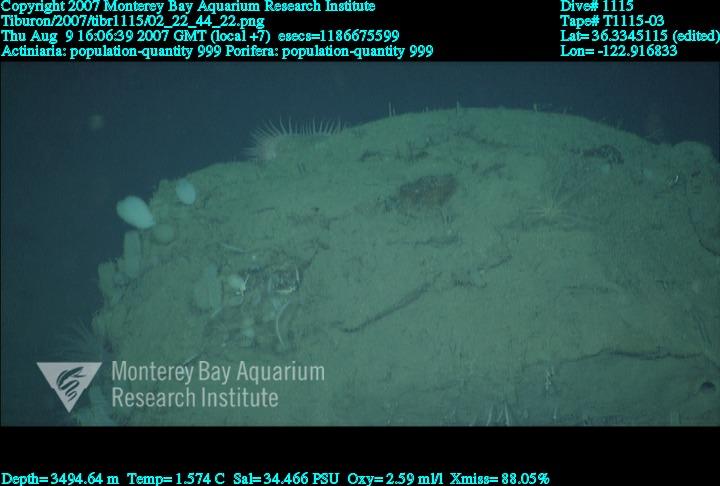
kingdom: Animalia
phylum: Porifera
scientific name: Porifera
